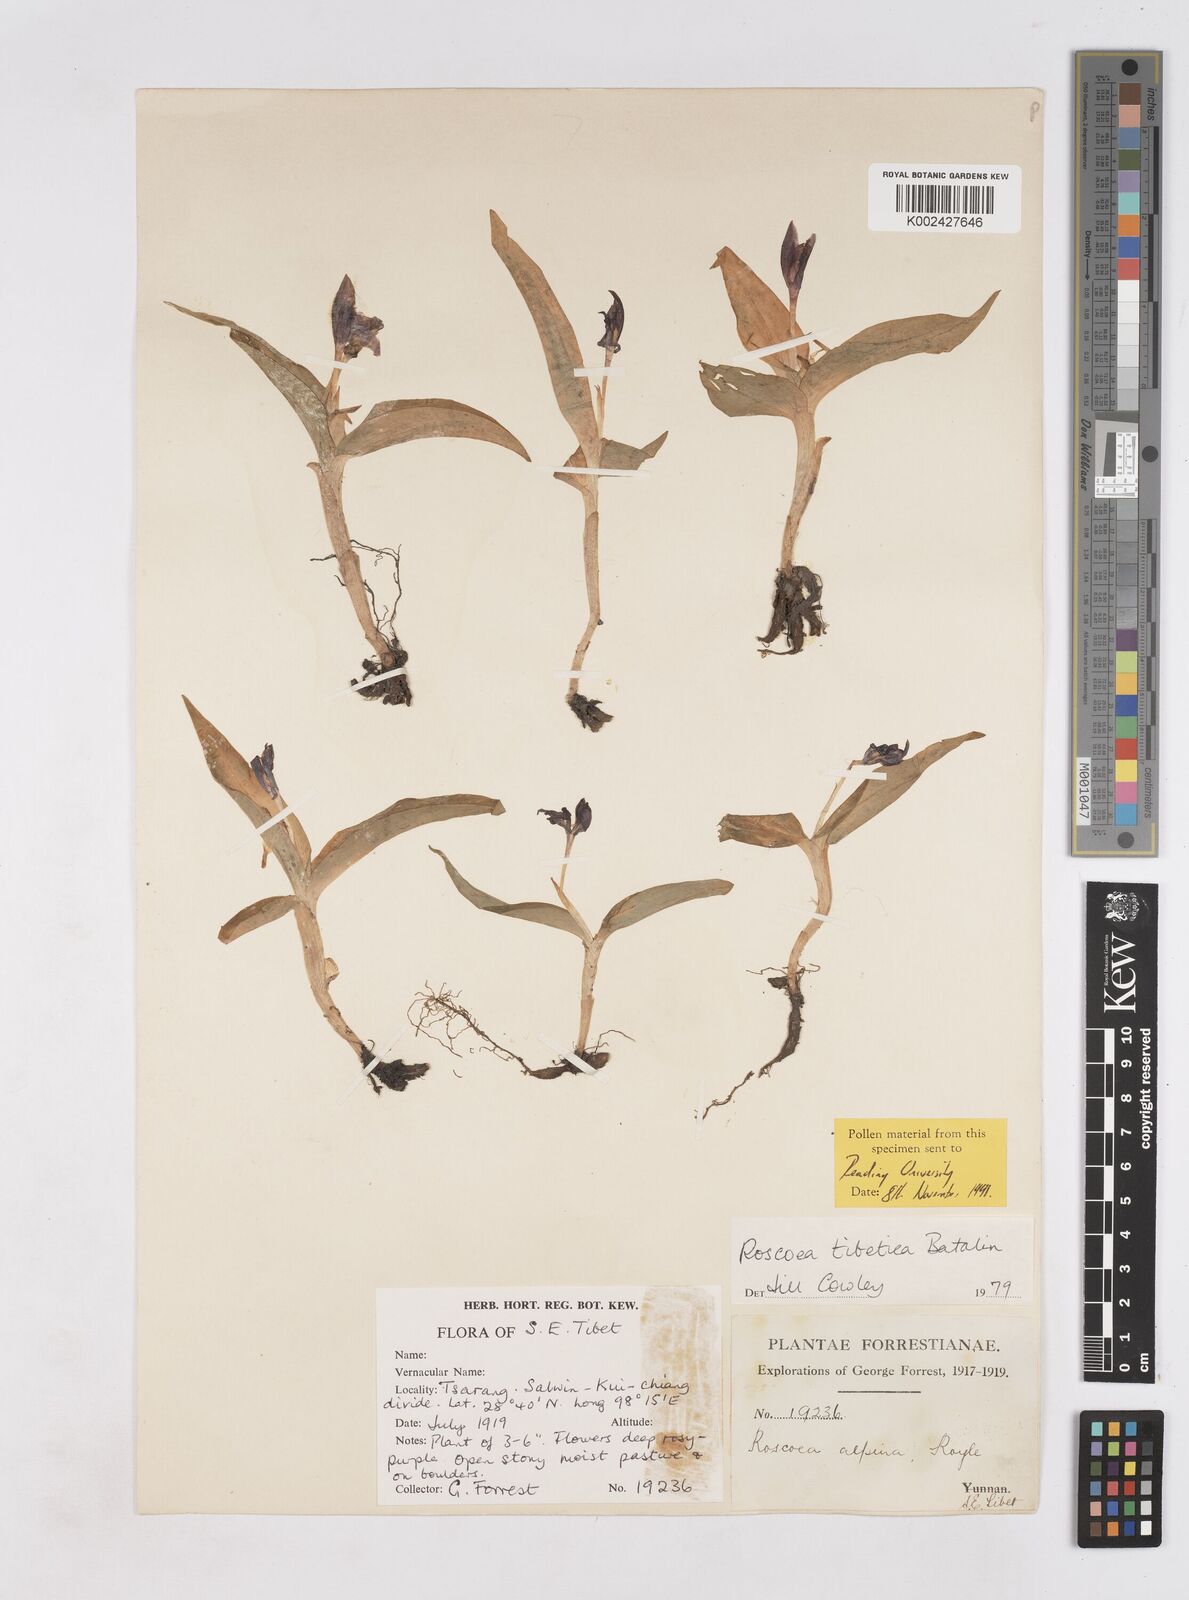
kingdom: Plantae
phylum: Tracheophyta
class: Liliopsida
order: Zingiberales
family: Zingiberaceae
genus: Roscoea
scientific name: Roscoea tibetica
